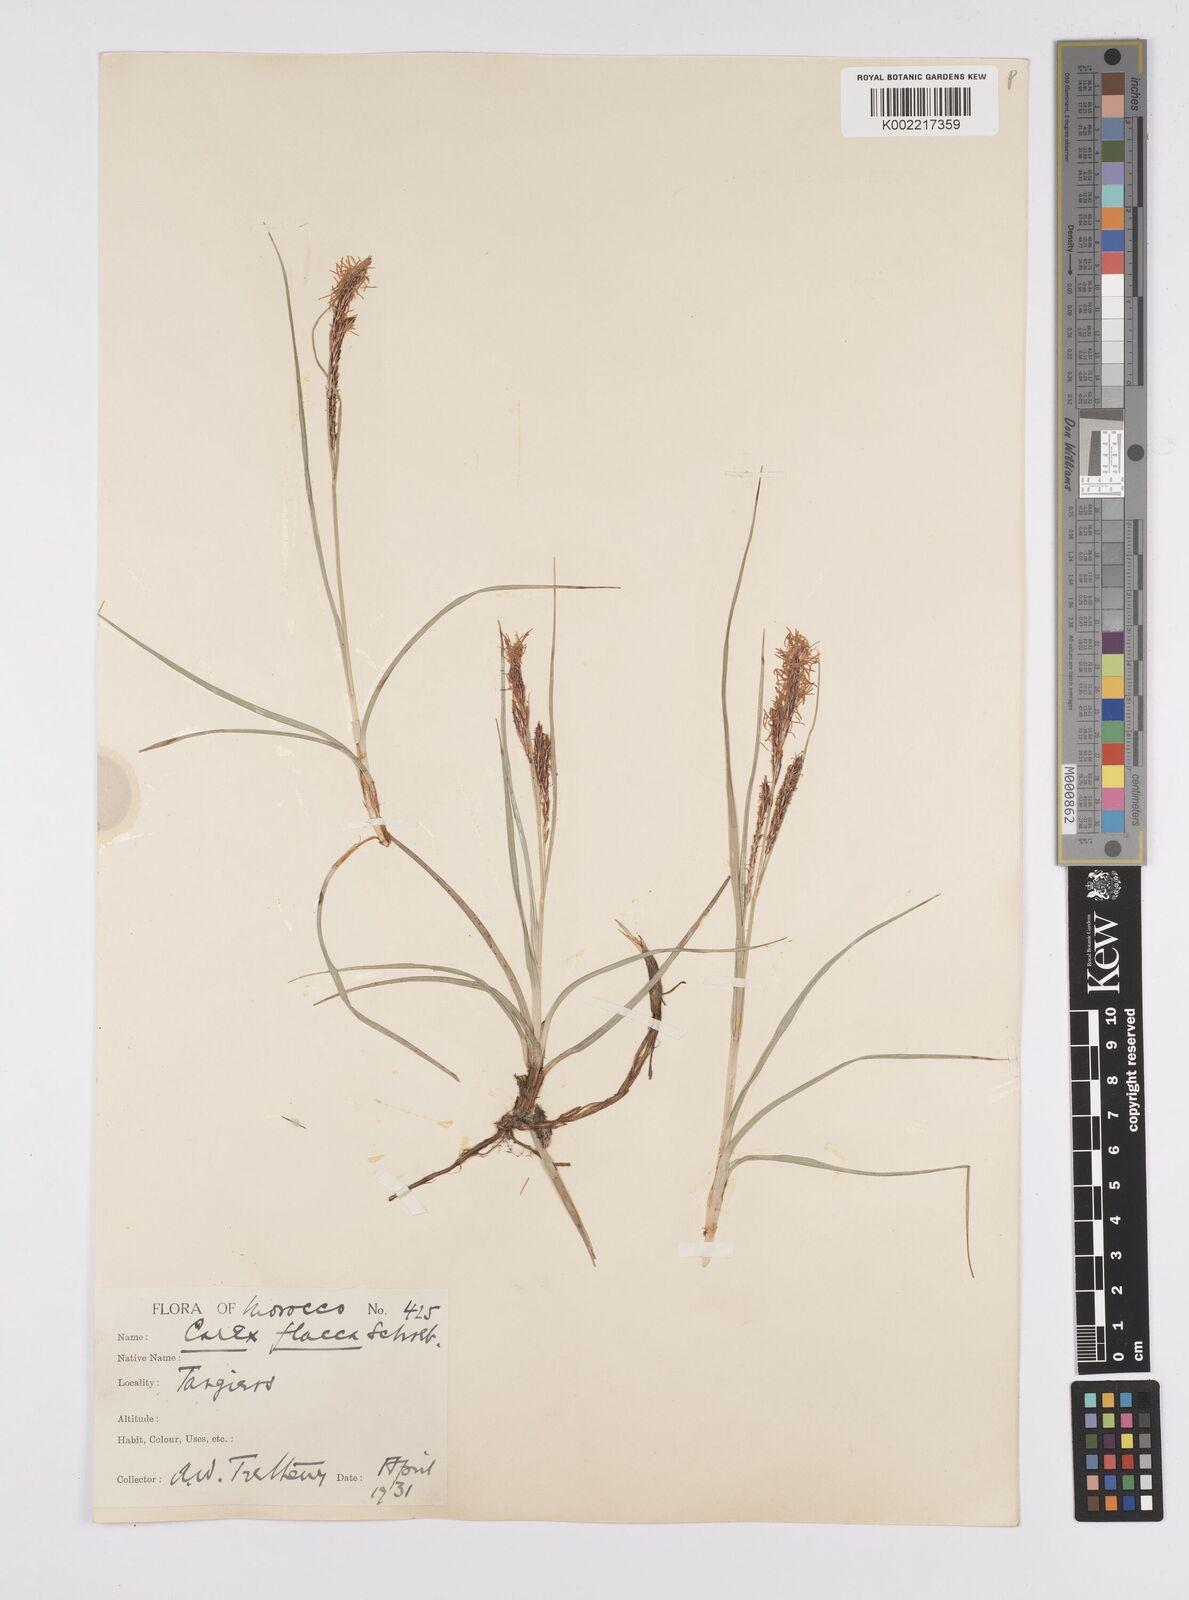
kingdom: Plantae
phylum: Tracheophyta
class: Liliopsida
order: Poales
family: Cyperaceae
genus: Carex
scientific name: Carex flacca
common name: Glaucous sedge
